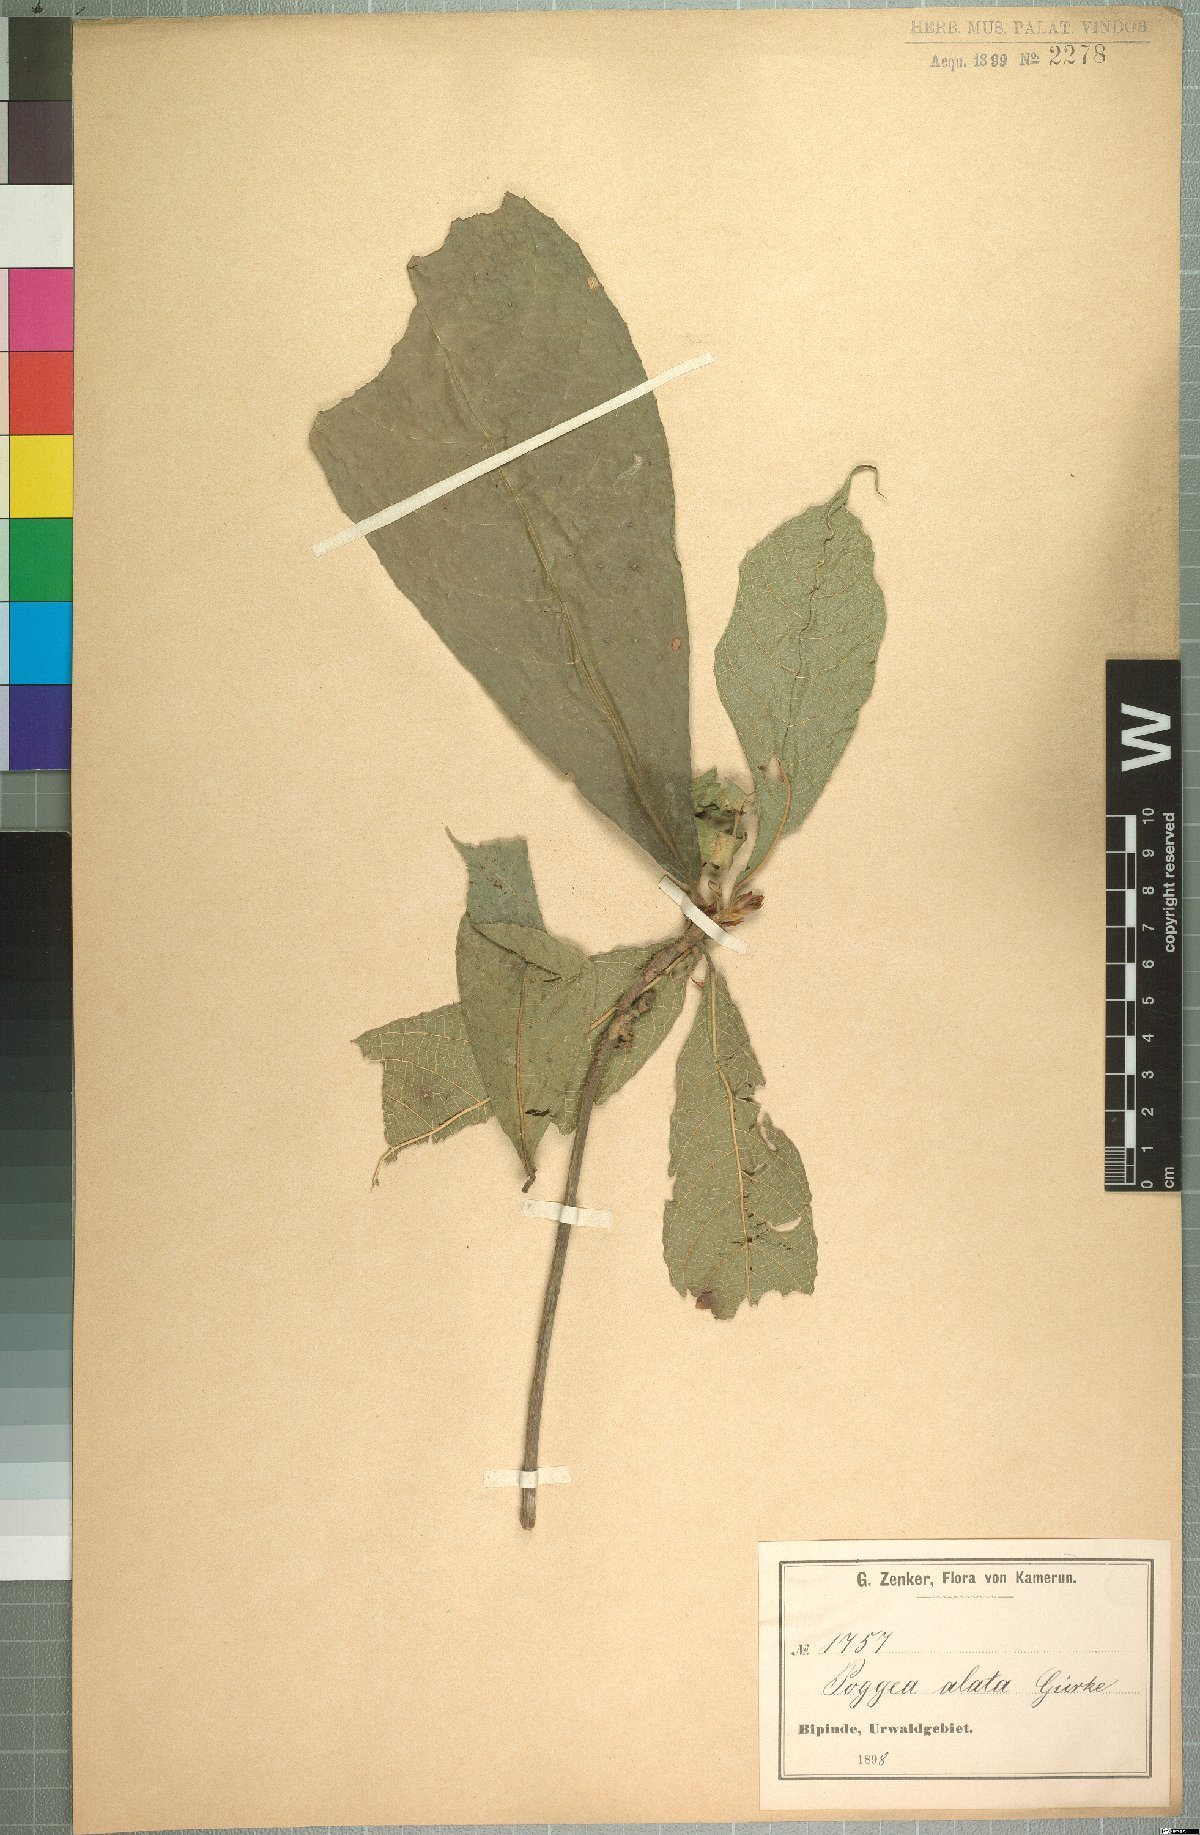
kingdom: Plantae
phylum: Tracheophyta
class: Magnoliopsida
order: Malpighiales
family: Achariaceae
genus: Poggea
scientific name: Poggea alata
